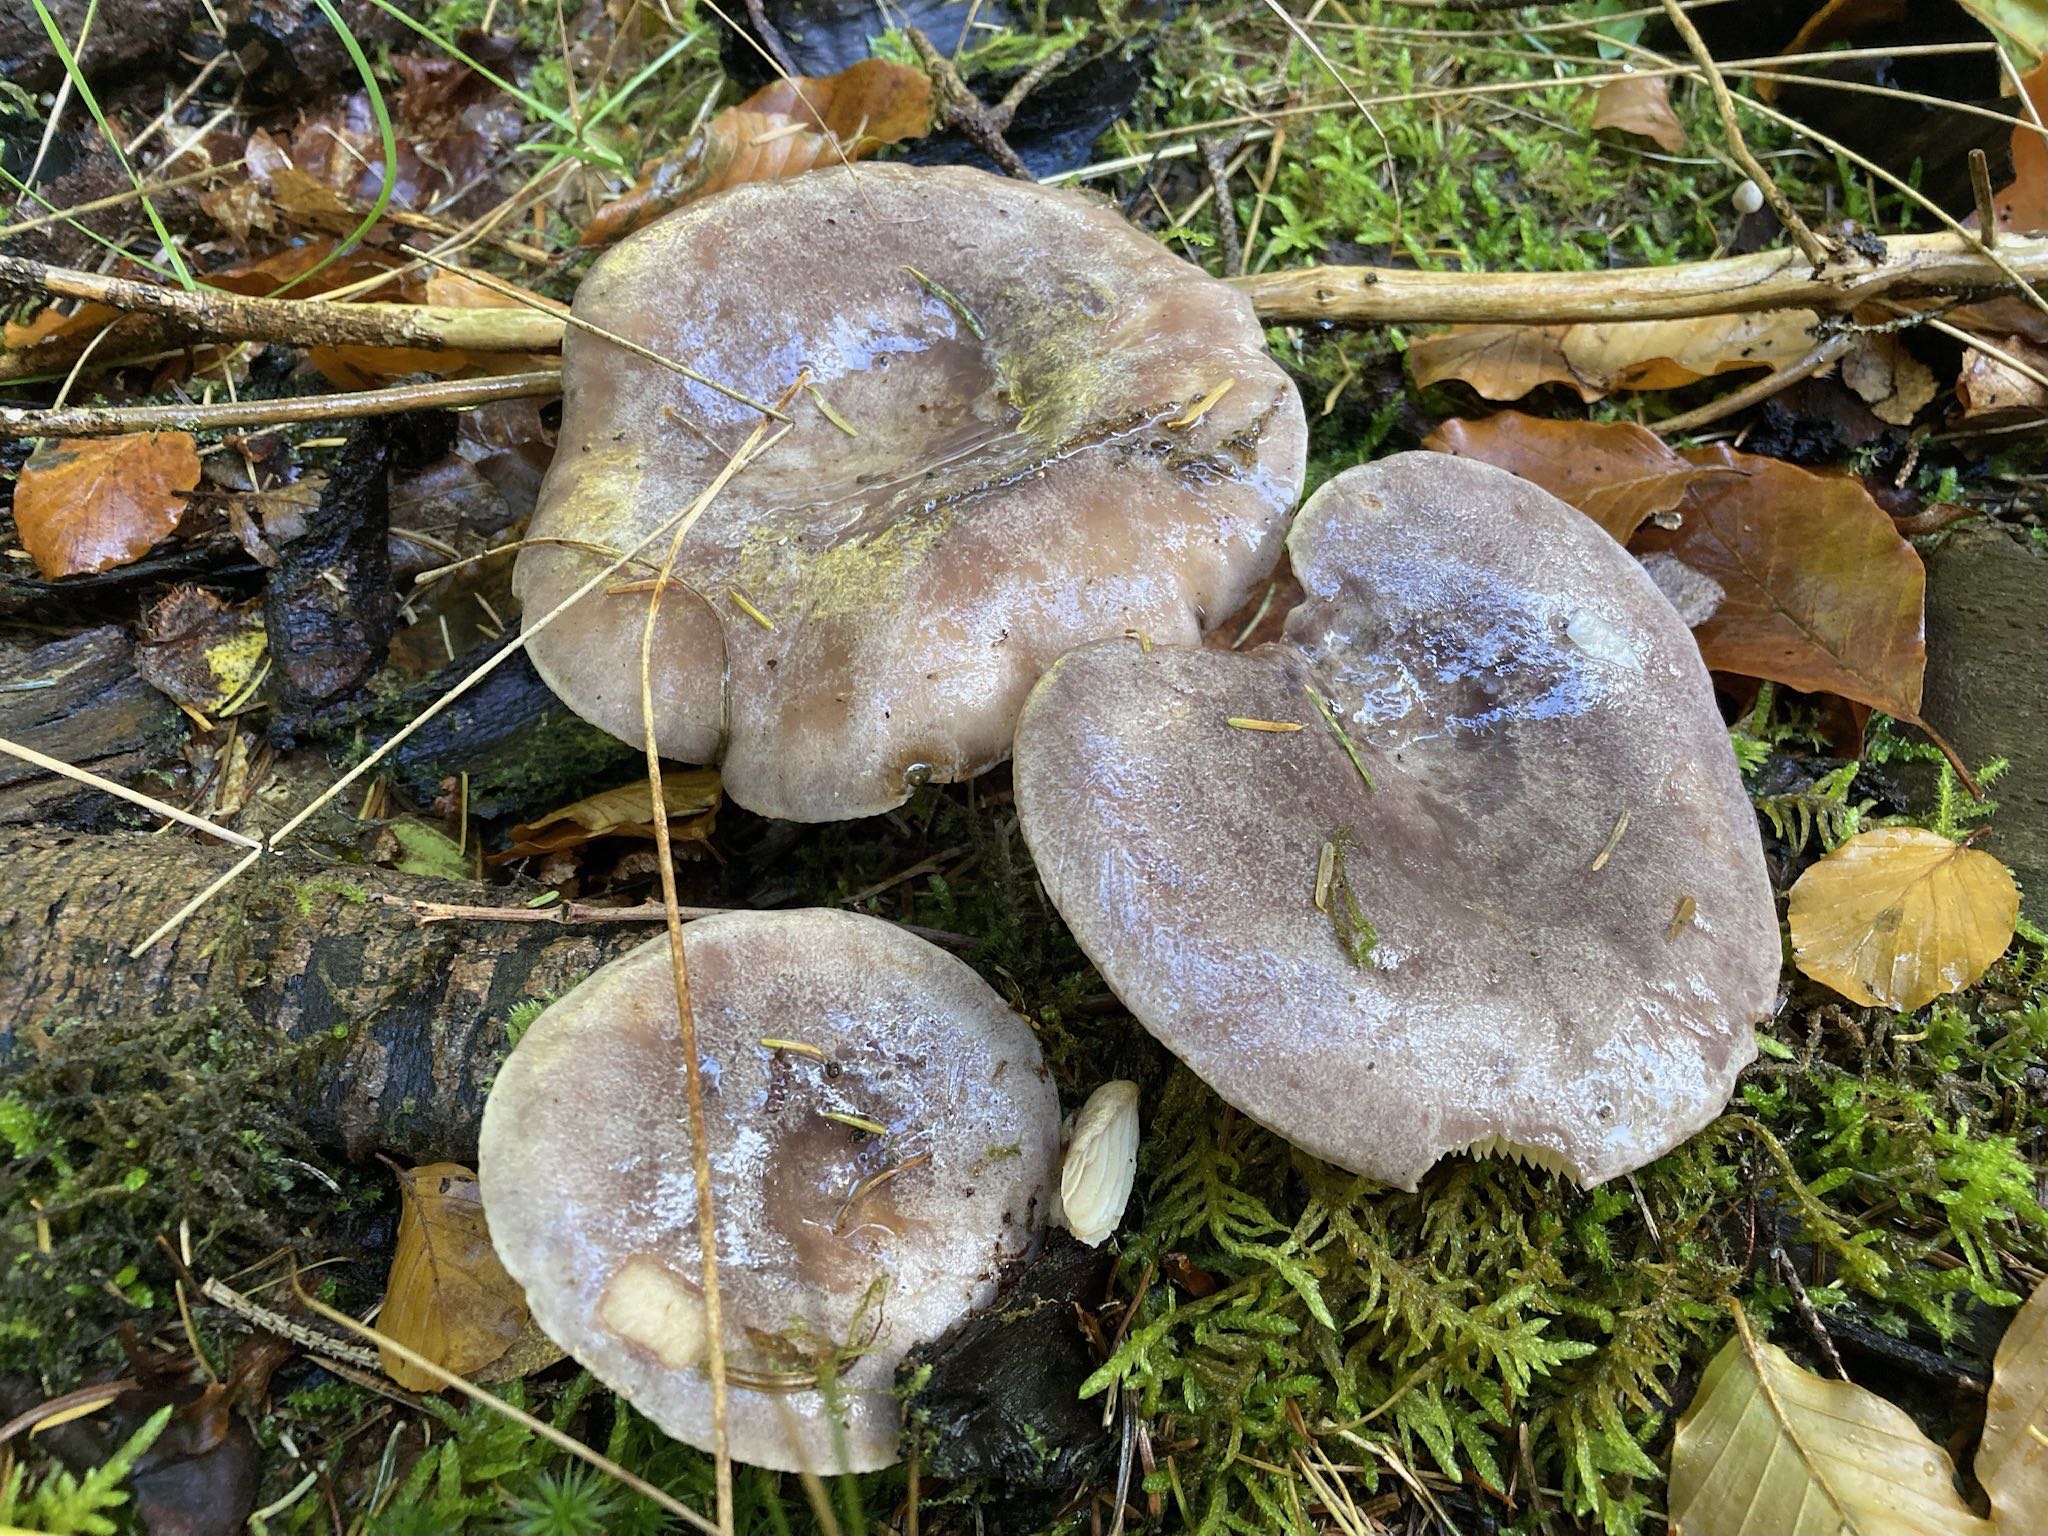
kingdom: Fungi
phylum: Basidiomycota
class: Agaricomycetes
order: Russulales
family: Russulaceae
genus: Lactarius
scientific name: Lactarius trivialis
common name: nordisk mælkehat
